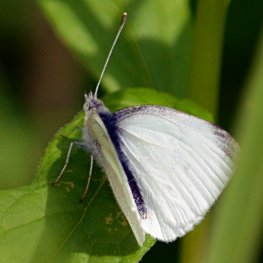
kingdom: Animalia
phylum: Arthropoda
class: Insecta
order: Lepidoptera
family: Pieridae
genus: Pieris
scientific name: Pieris rapae
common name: Cabbage White
